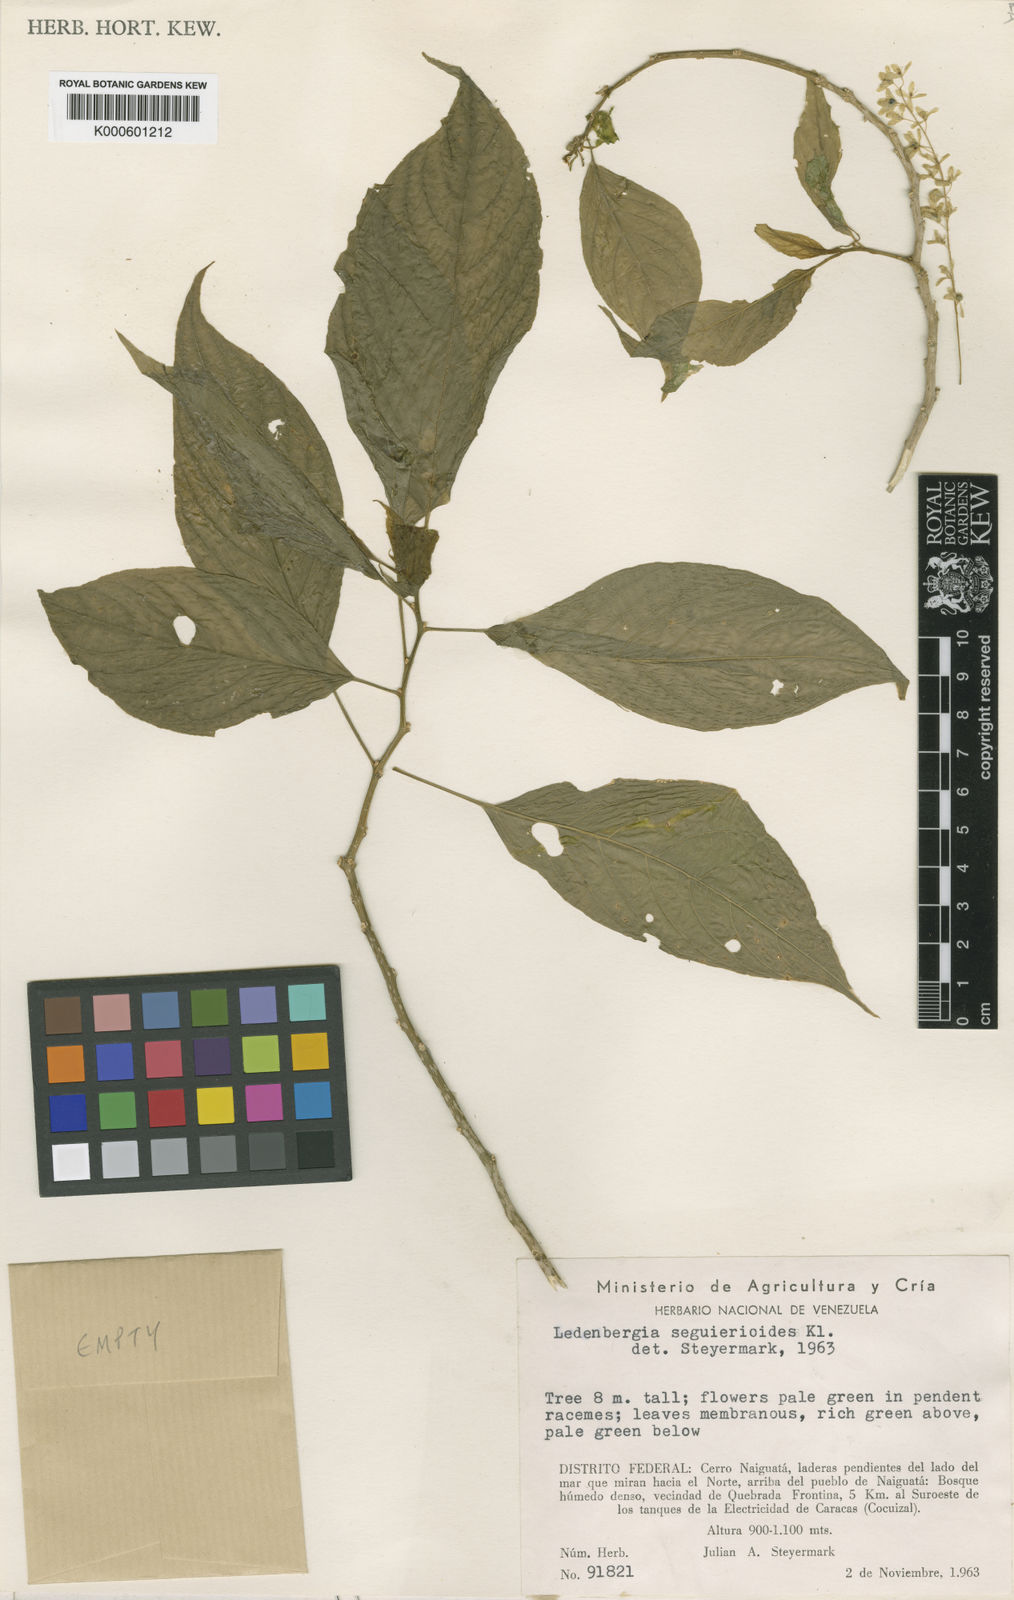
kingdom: Plantae
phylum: Tracheophyta
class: Magnoliopsida
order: Caryophyllales
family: Phytolaccaceae
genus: Ledenbergia
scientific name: Ledenbergia seguierioides
